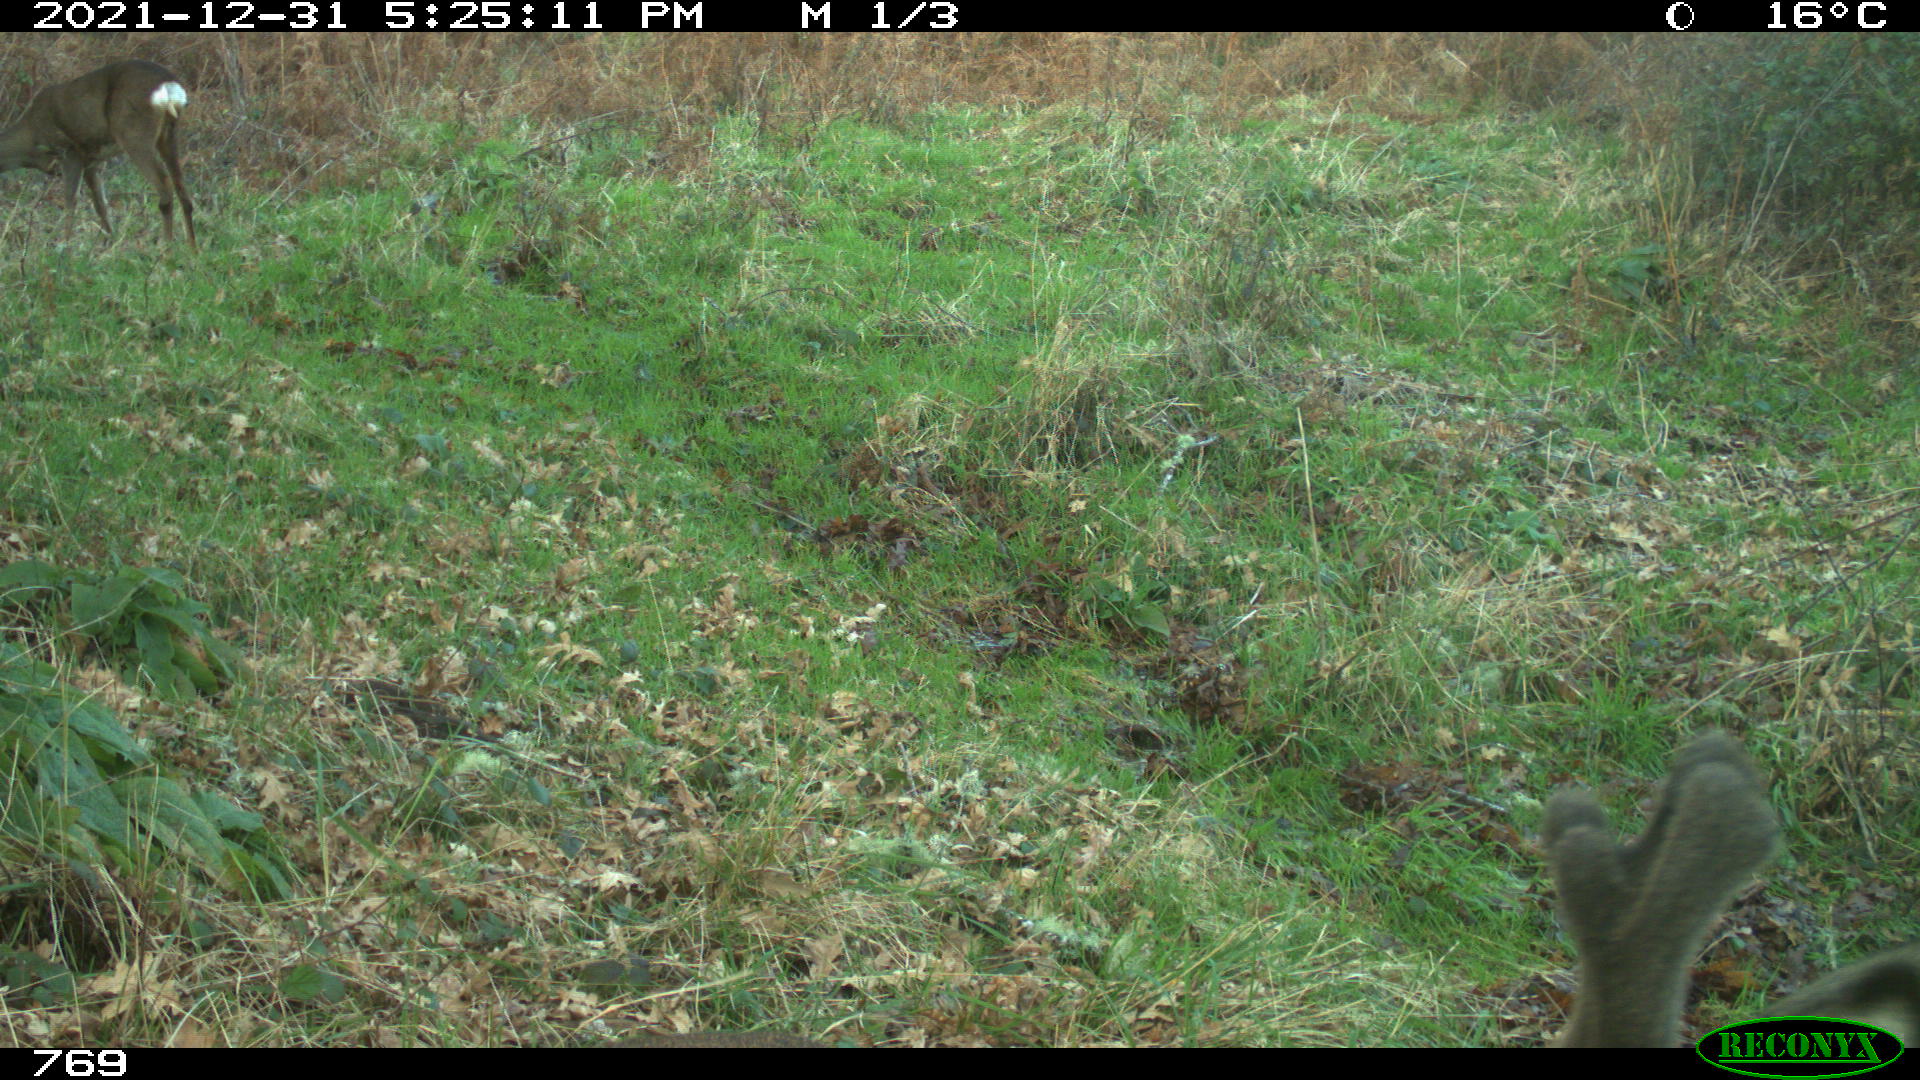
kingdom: Animalia
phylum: Chordata
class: Mammalia
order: Artiodactyla
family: Cervidae
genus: Capreolus
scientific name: Capreolus capreolus
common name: Western roe deer
